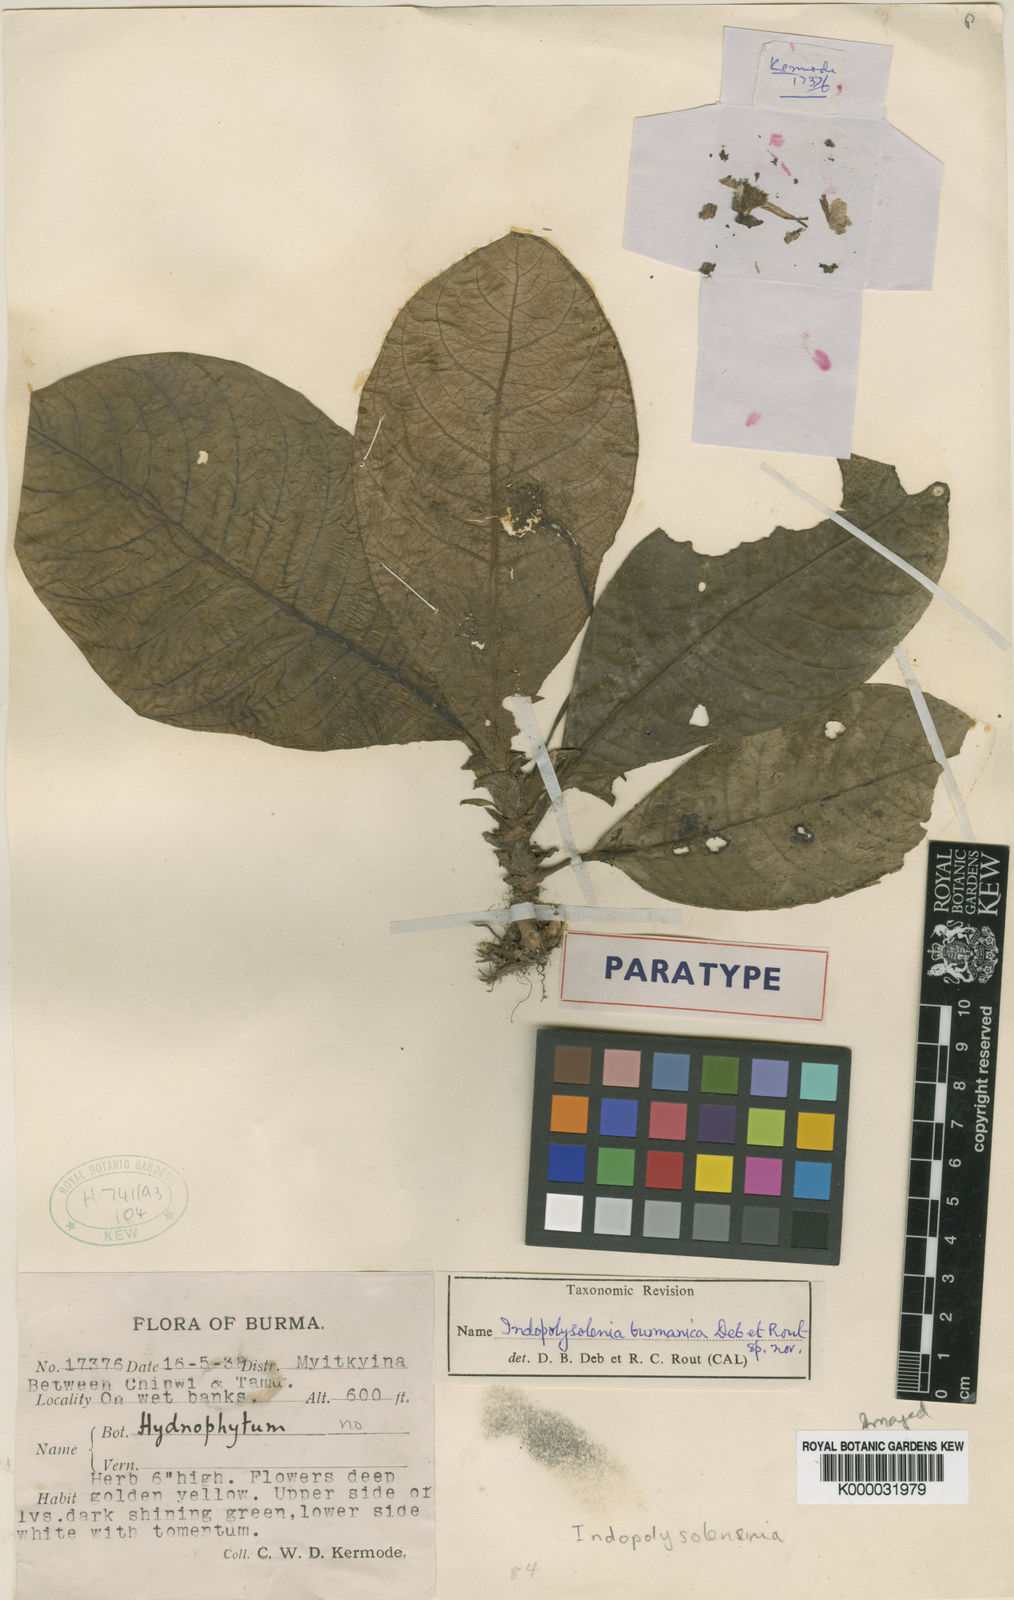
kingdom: Plantae
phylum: Tracheophyta
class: Magnoliopsida
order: Gentianales
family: Rubiaceae
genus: Leptomischus
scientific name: Leptomischus primuloides
